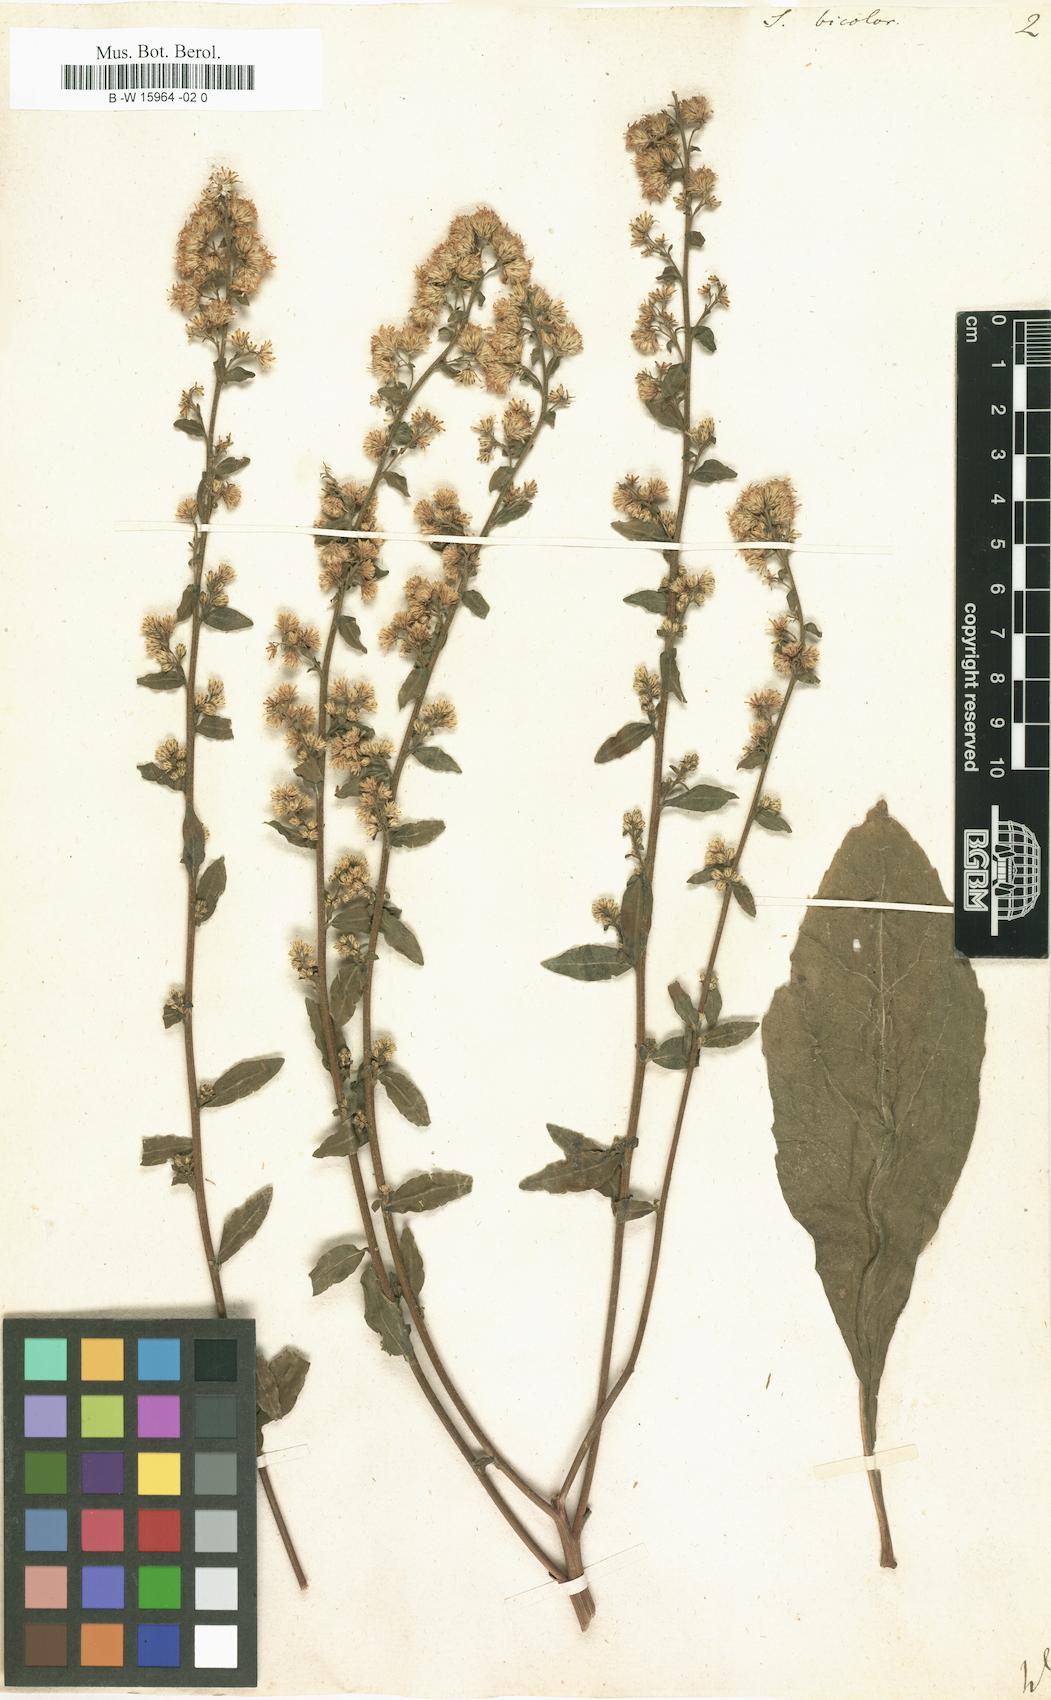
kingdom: Plantae
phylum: Tracheophyta
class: Magnoliopsida
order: Asterales
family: Asteraceae
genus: Solidago
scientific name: Solidago bicolor
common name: Silverrod
